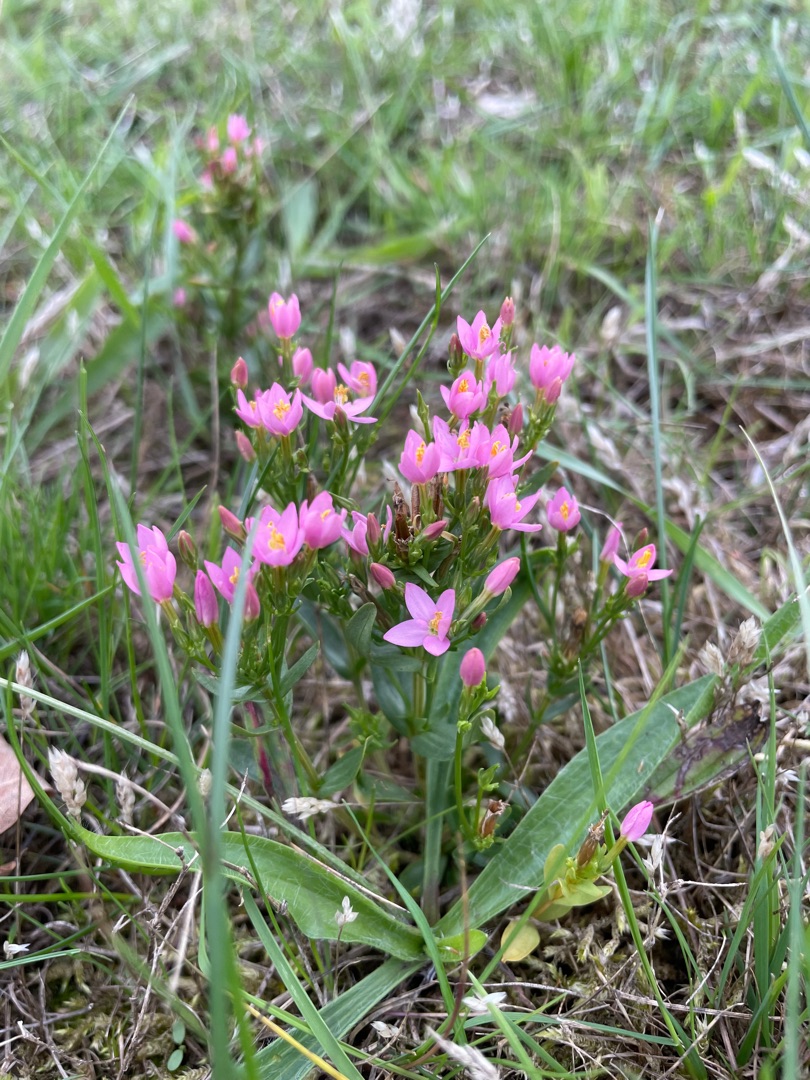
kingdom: Plantae
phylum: Tracheophyta
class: Magnoliopsida
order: Gentianales
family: Gentianaceae
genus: Centaurium
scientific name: Centaurium erythraea
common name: Mark-tusindgylden
